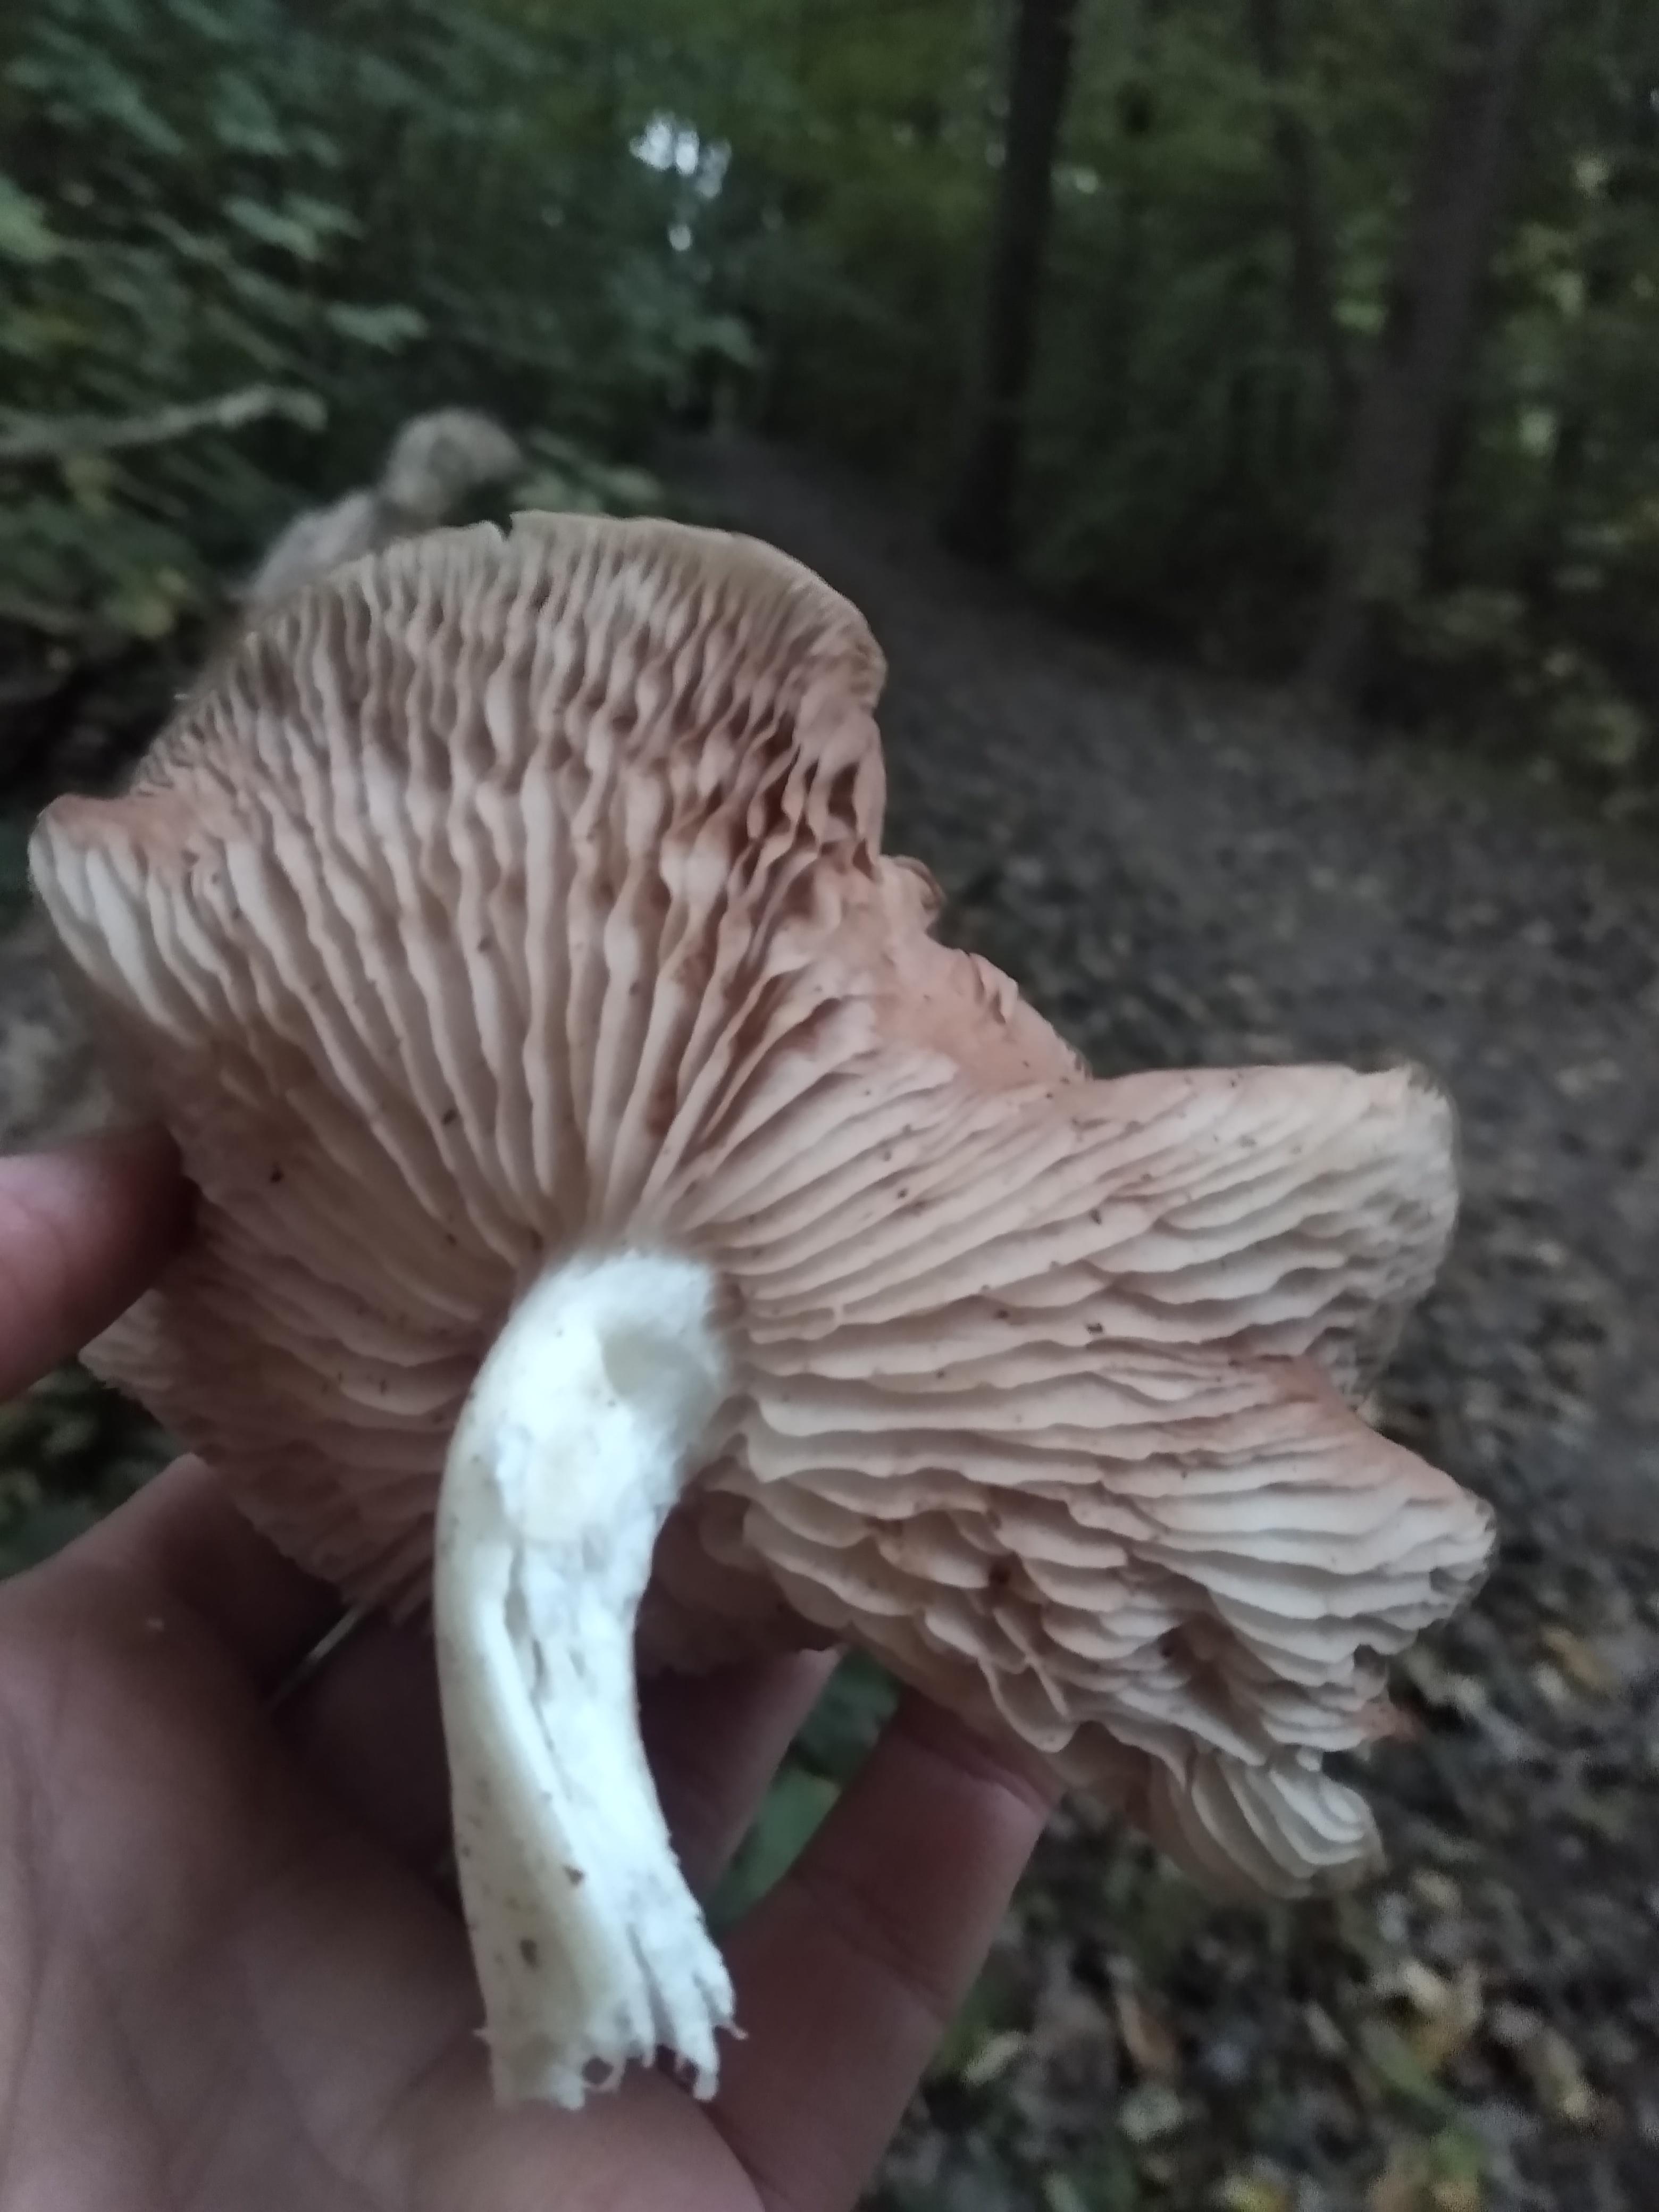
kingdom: Fungi
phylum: Basidiomycota
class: Agaricomycetes
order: Agaricales
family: Entolomataceae
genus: Entoloma
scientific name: Entoloma
